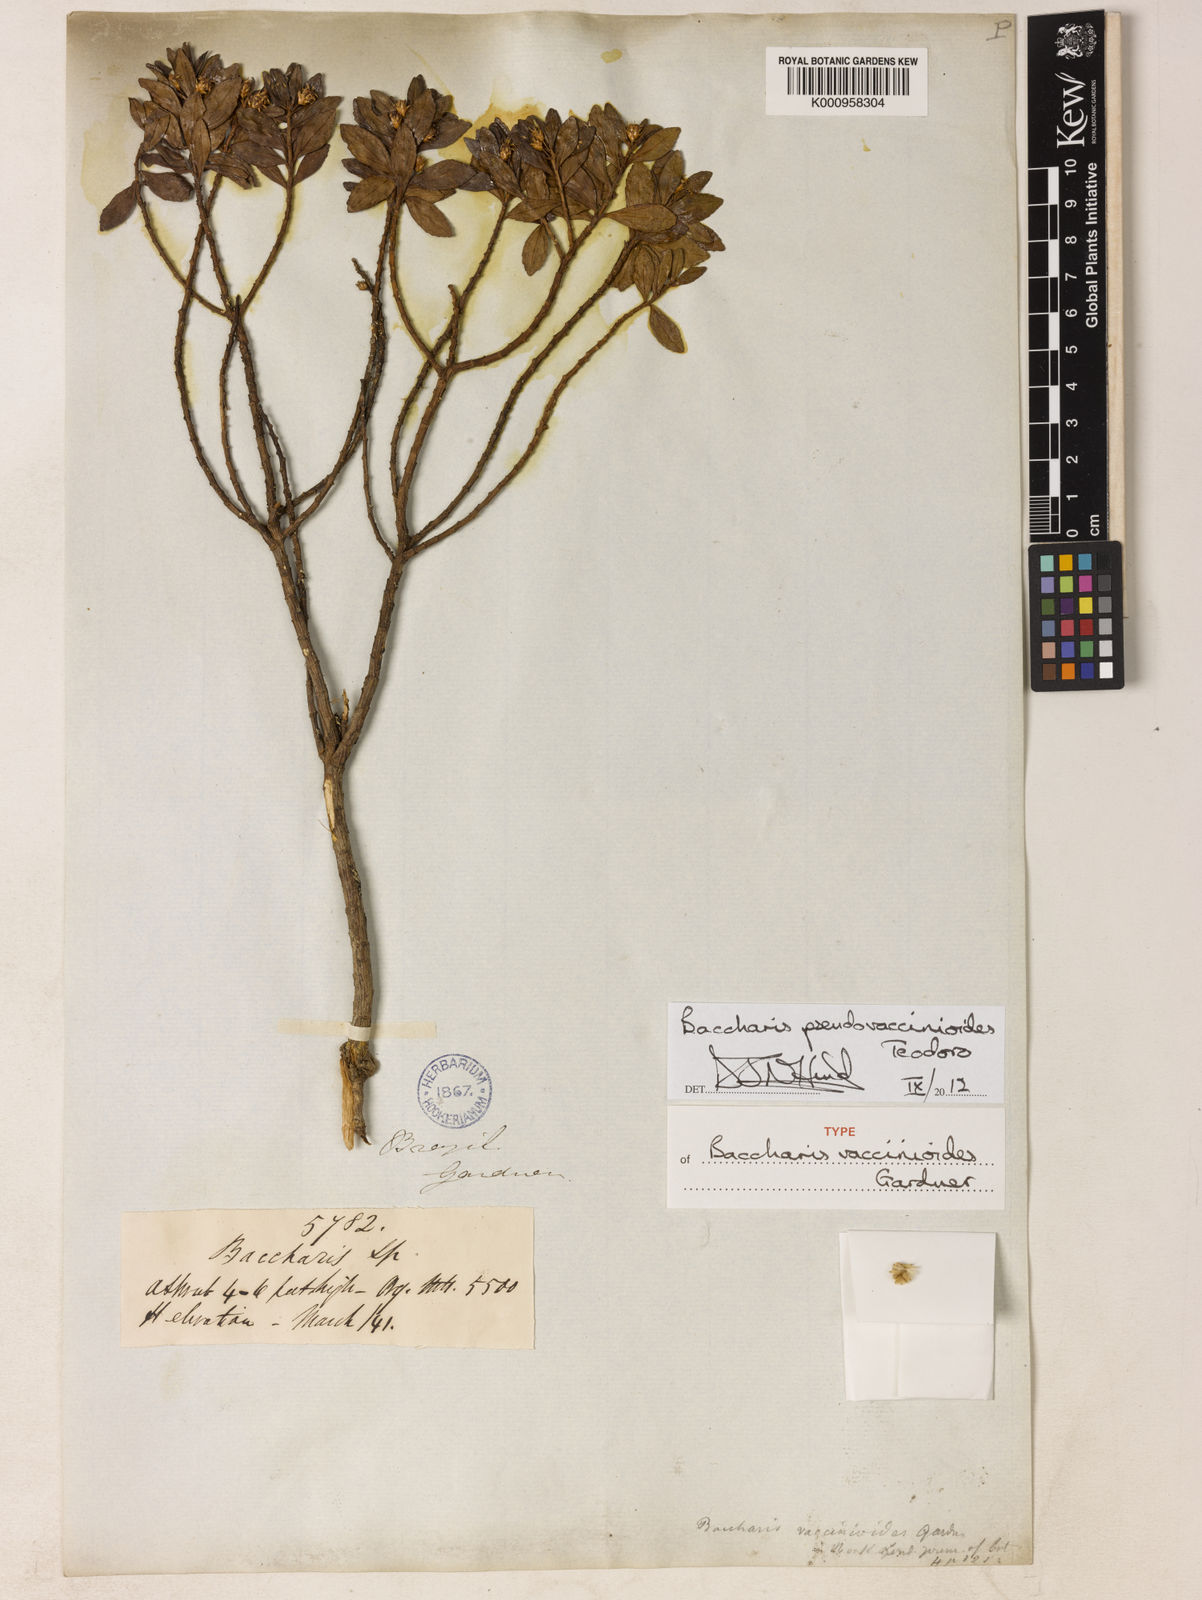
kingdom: Plantae
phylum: Tracheophyta
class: Magnoliopsida
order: Asterales
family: Asteraceae
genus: Baccharis
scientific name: Baccharis
